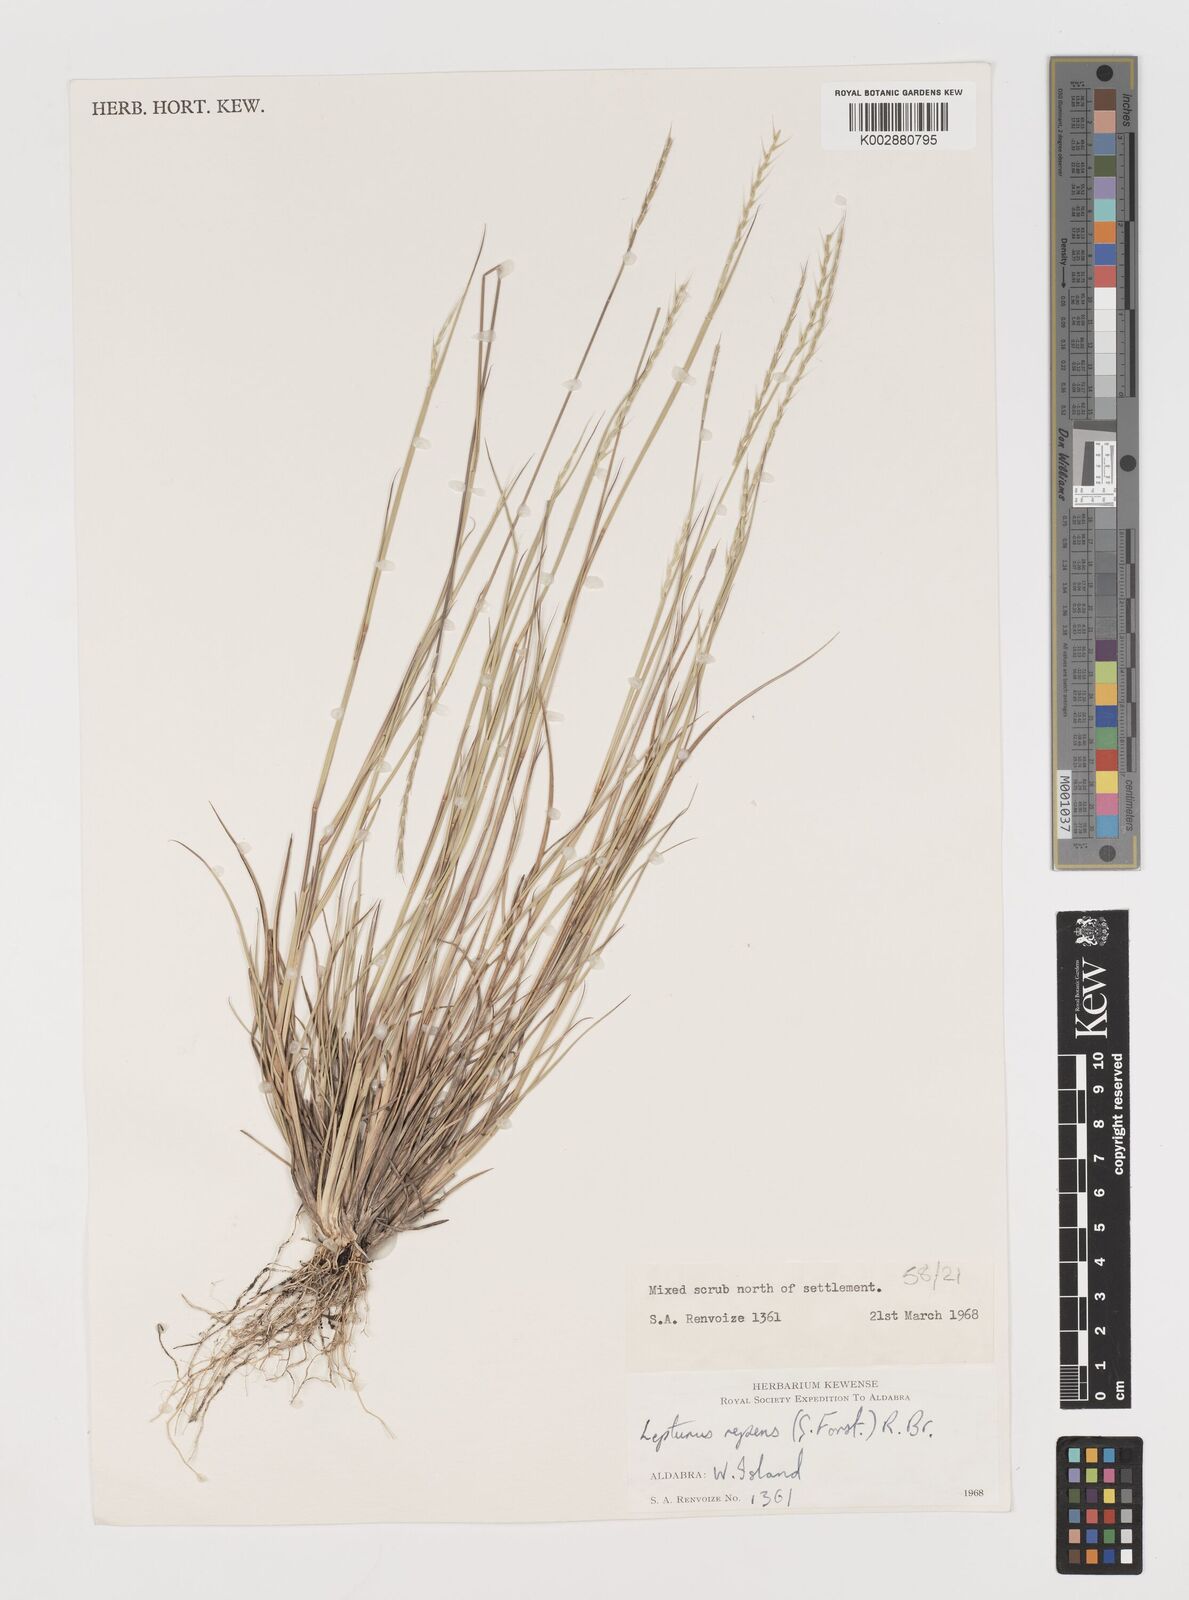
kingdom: Plantae
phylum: Tracheophyta
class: Liliopsida
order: Poales
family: Poaceae
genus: Lepturus
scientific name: Lepturus repens
